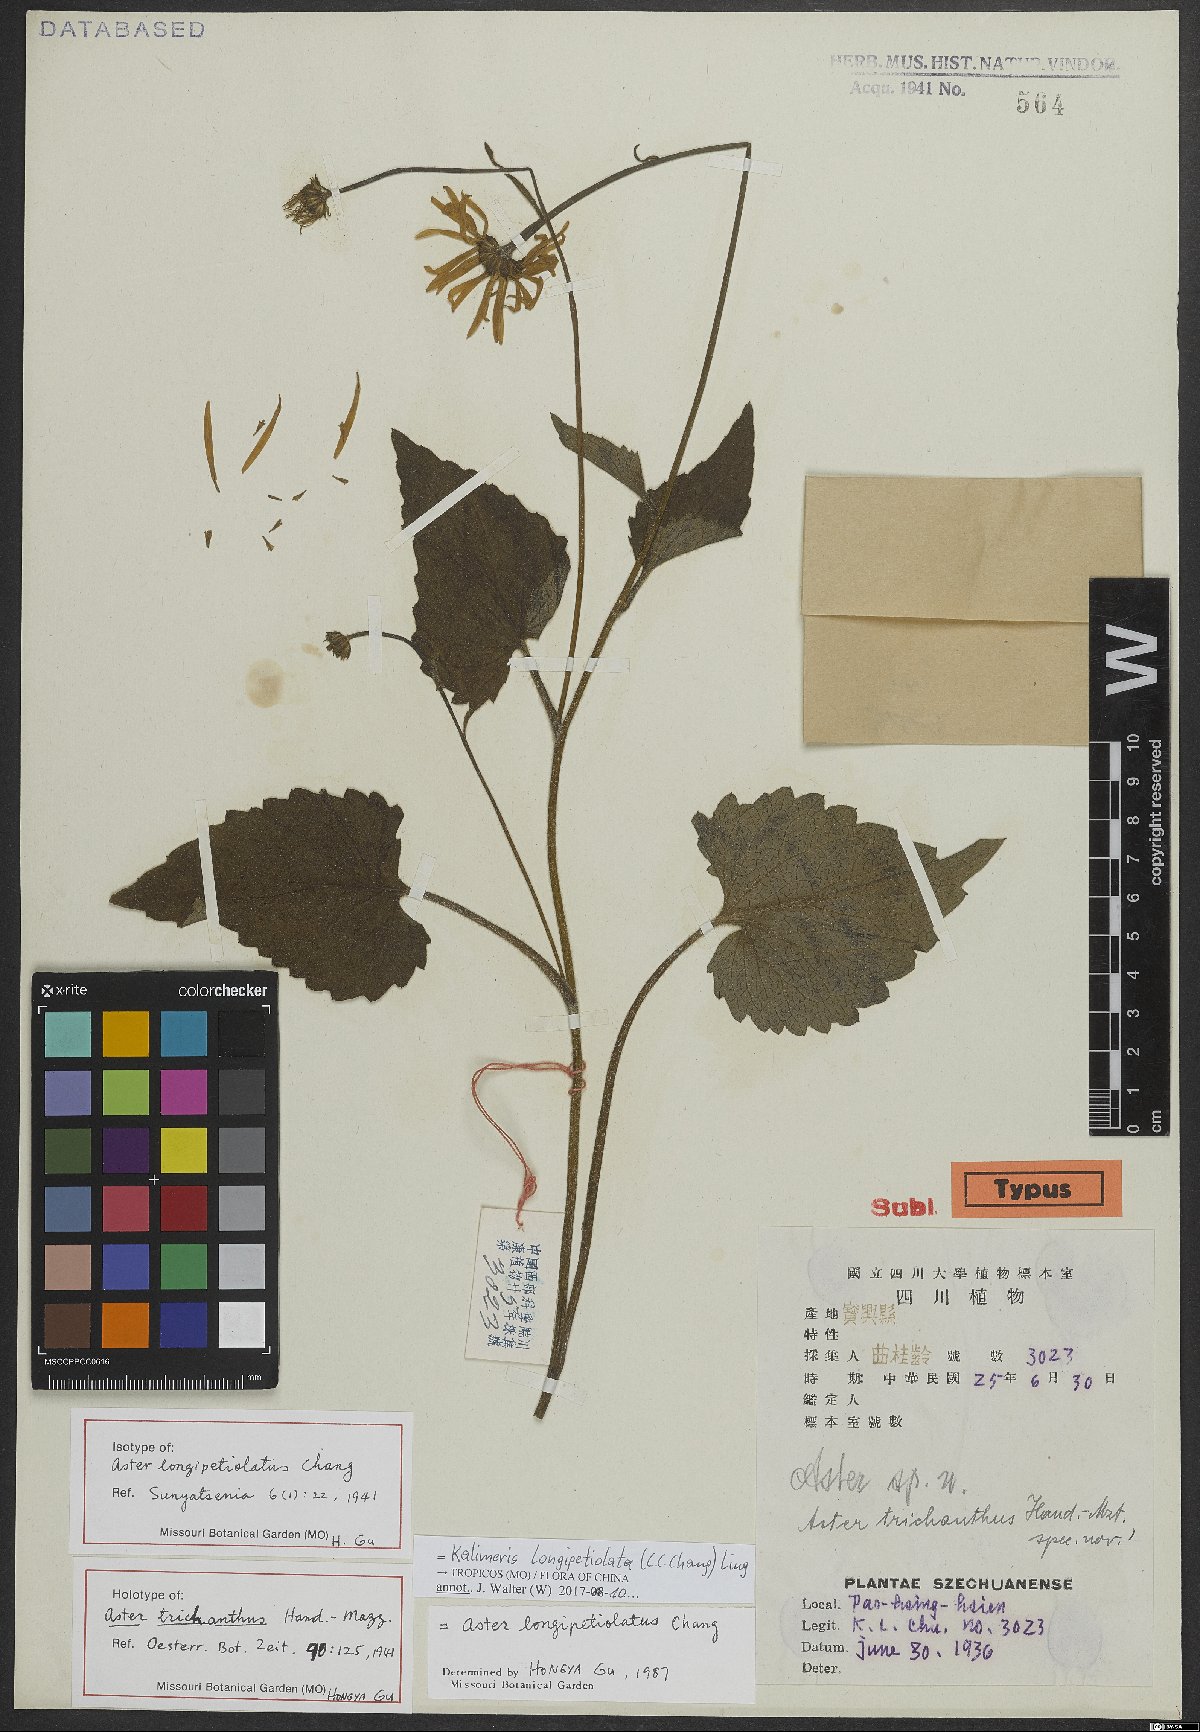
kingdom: Plantae
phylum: Tracheophyta
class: Magnoliopsida
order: Asterales
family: Asteraceae
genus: Cordiofontis
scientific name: Cordiofontis longipetiolata
